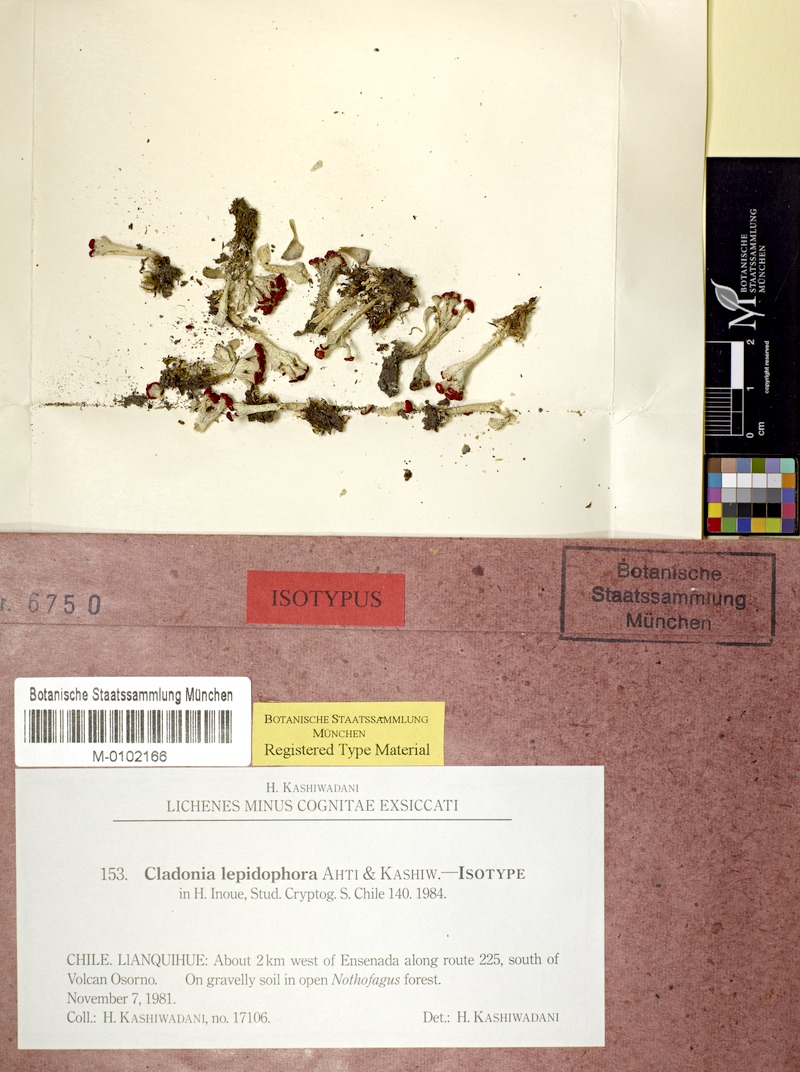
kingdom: Fungi
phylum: Ascomycota
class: Lecanoromycetes
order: Lecanorales
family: Cladoniaceae
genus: Cladonia
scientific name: Cladonia lepidophora
